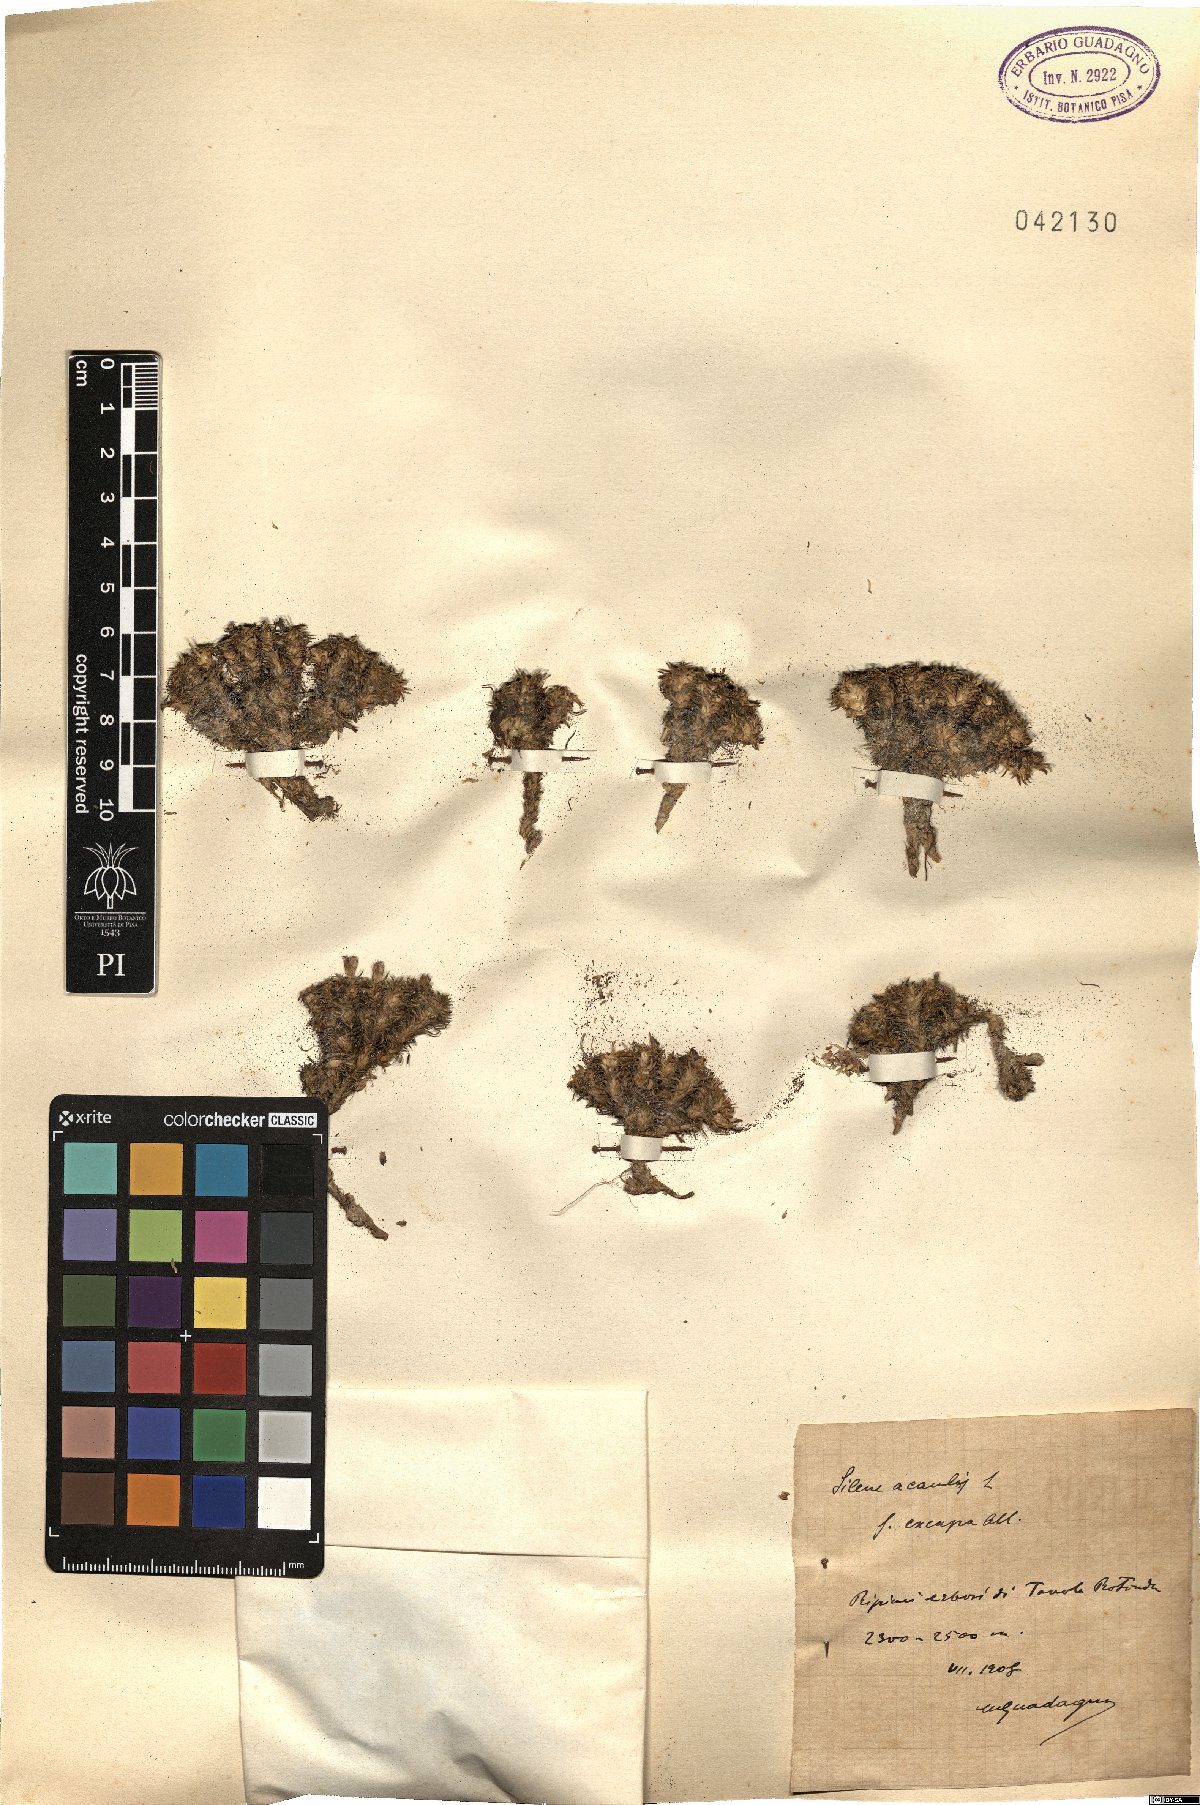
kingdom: Plantae
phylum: Tracheophyta
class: Magnoliopsida
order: Caryophyllales
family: Caryophyllaceae
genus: Silene
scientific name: Silene acaulis
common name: Moss campion
